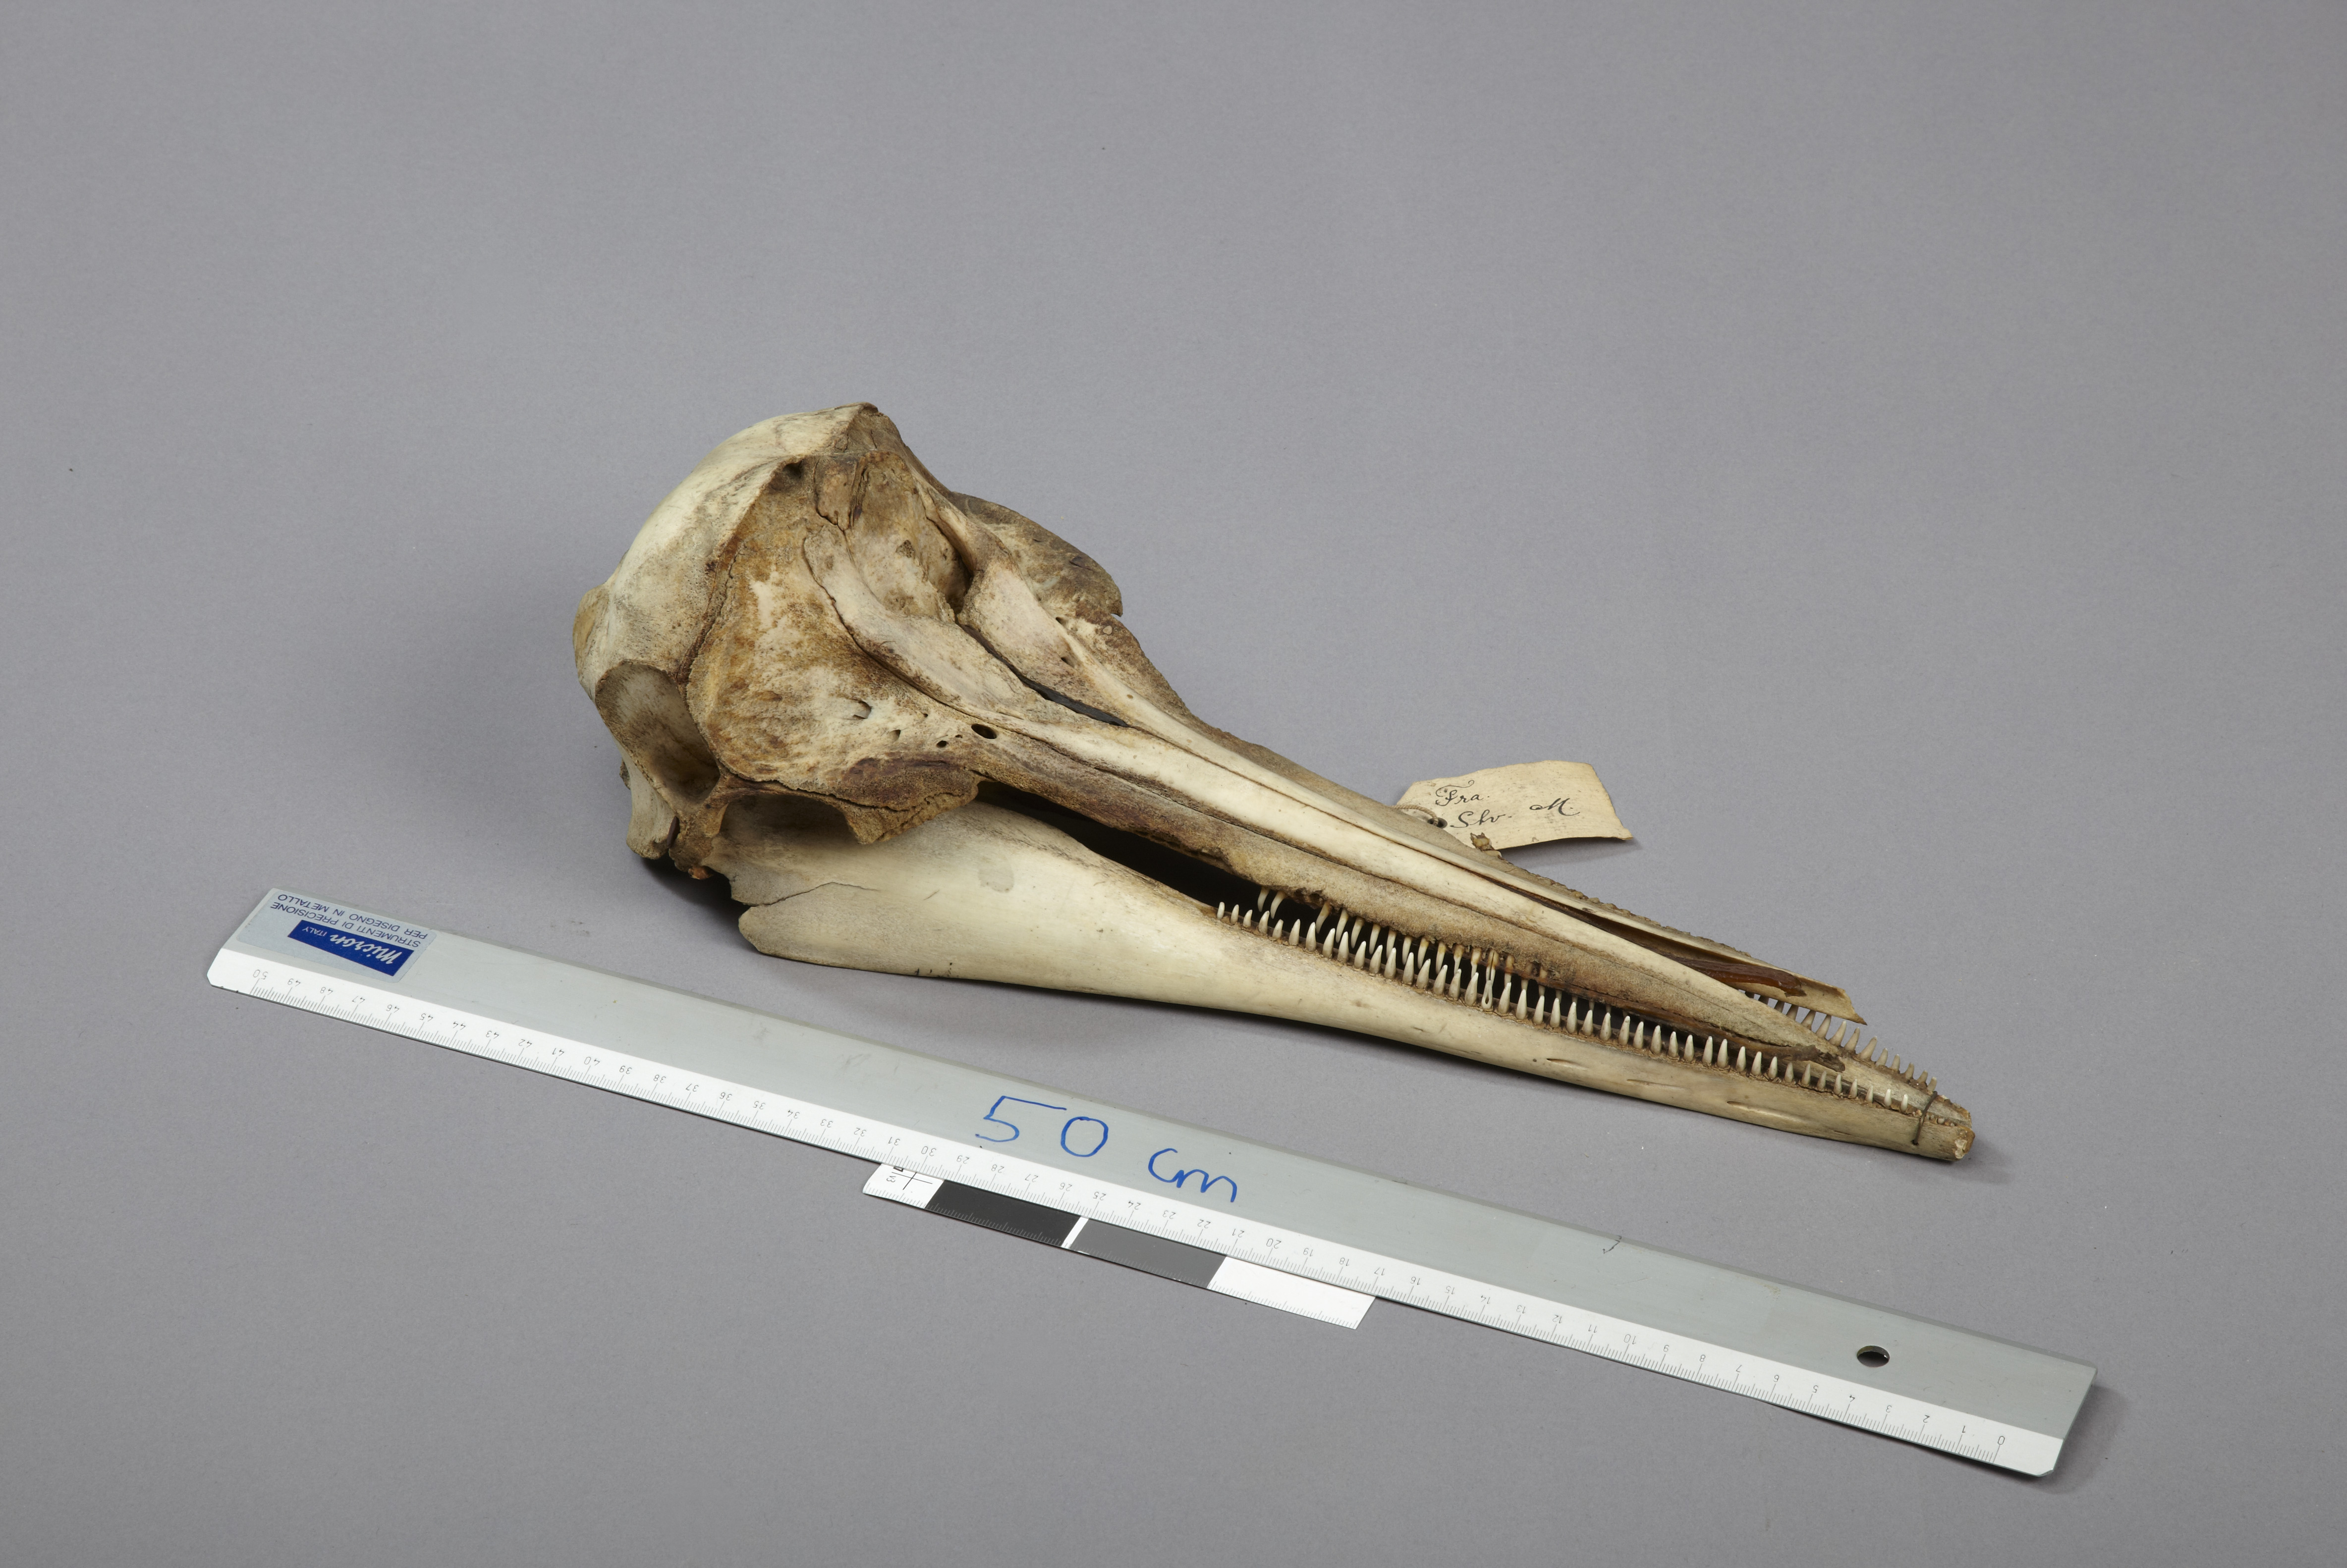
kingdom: Animalia
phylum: Chordata
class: Mammalia
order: Cetacea
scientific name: Cetacea
